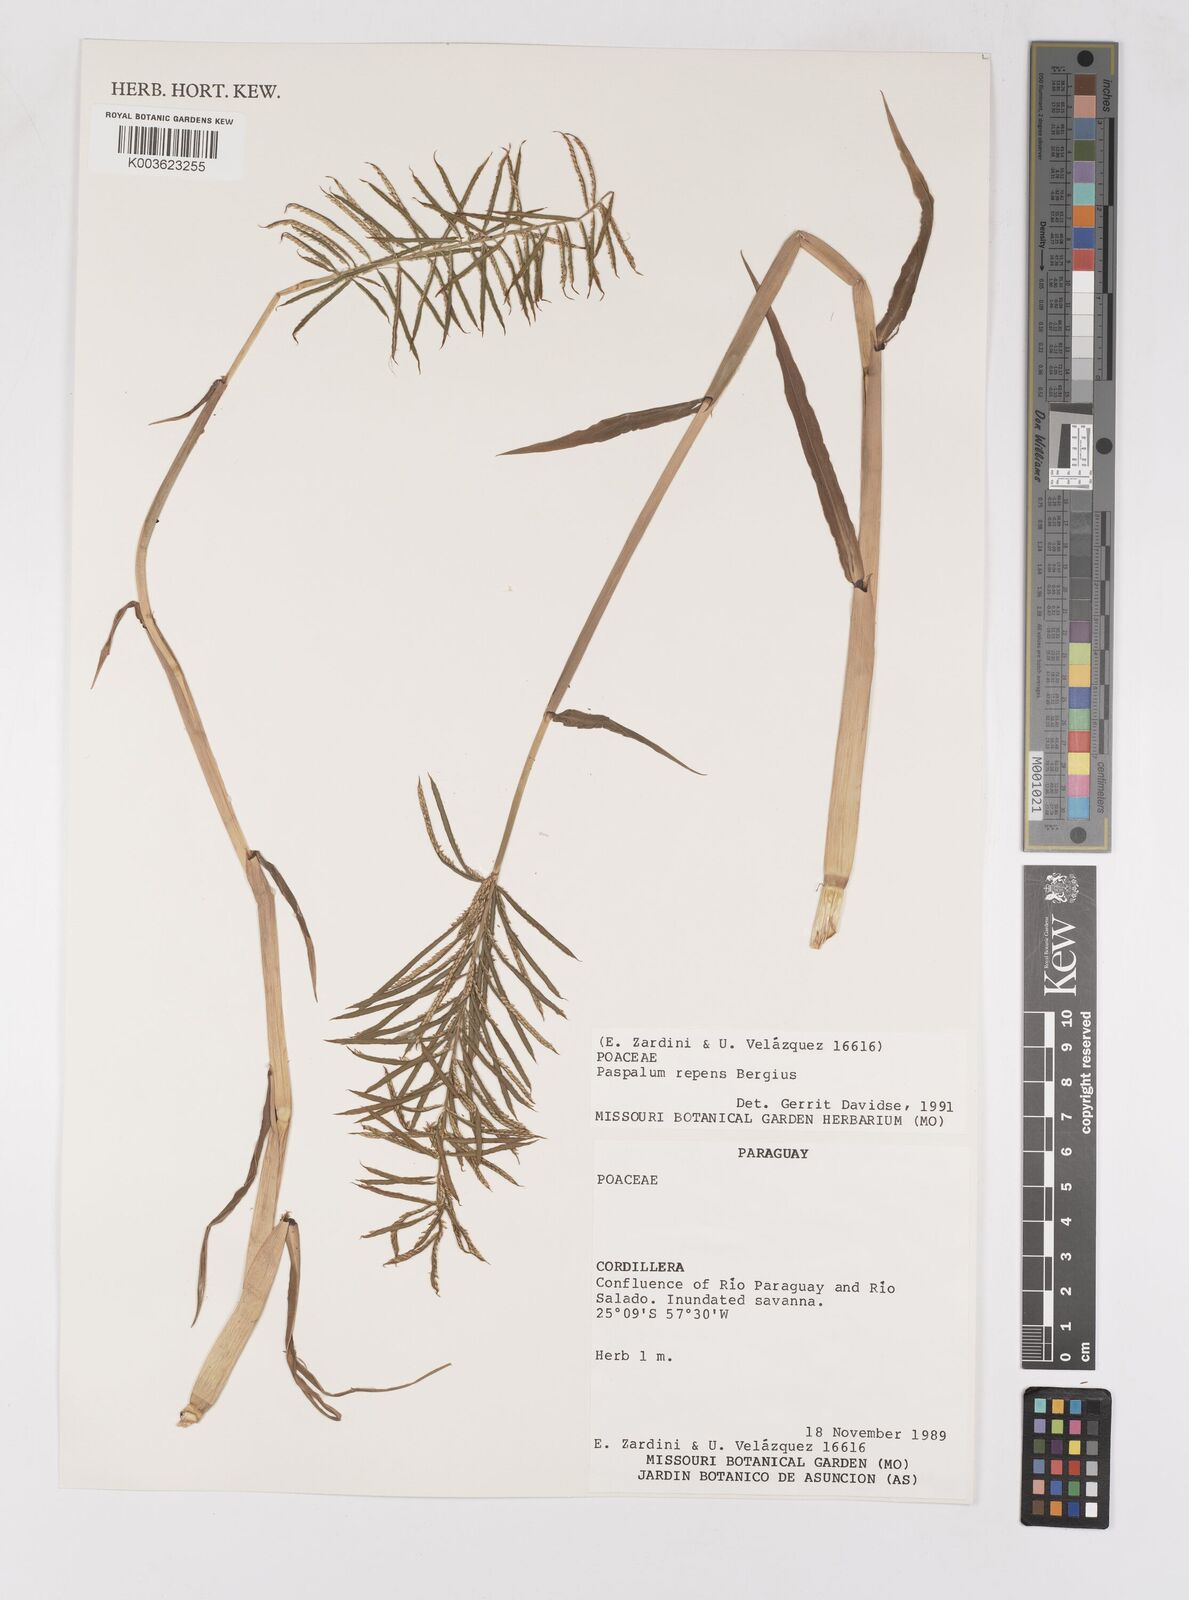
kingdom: Plantae
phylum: Tracheophyta
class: Liliopsida
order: Poales
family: Poaceae
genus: Paspalum
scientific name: Paspalum repens
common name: Water paspalum
